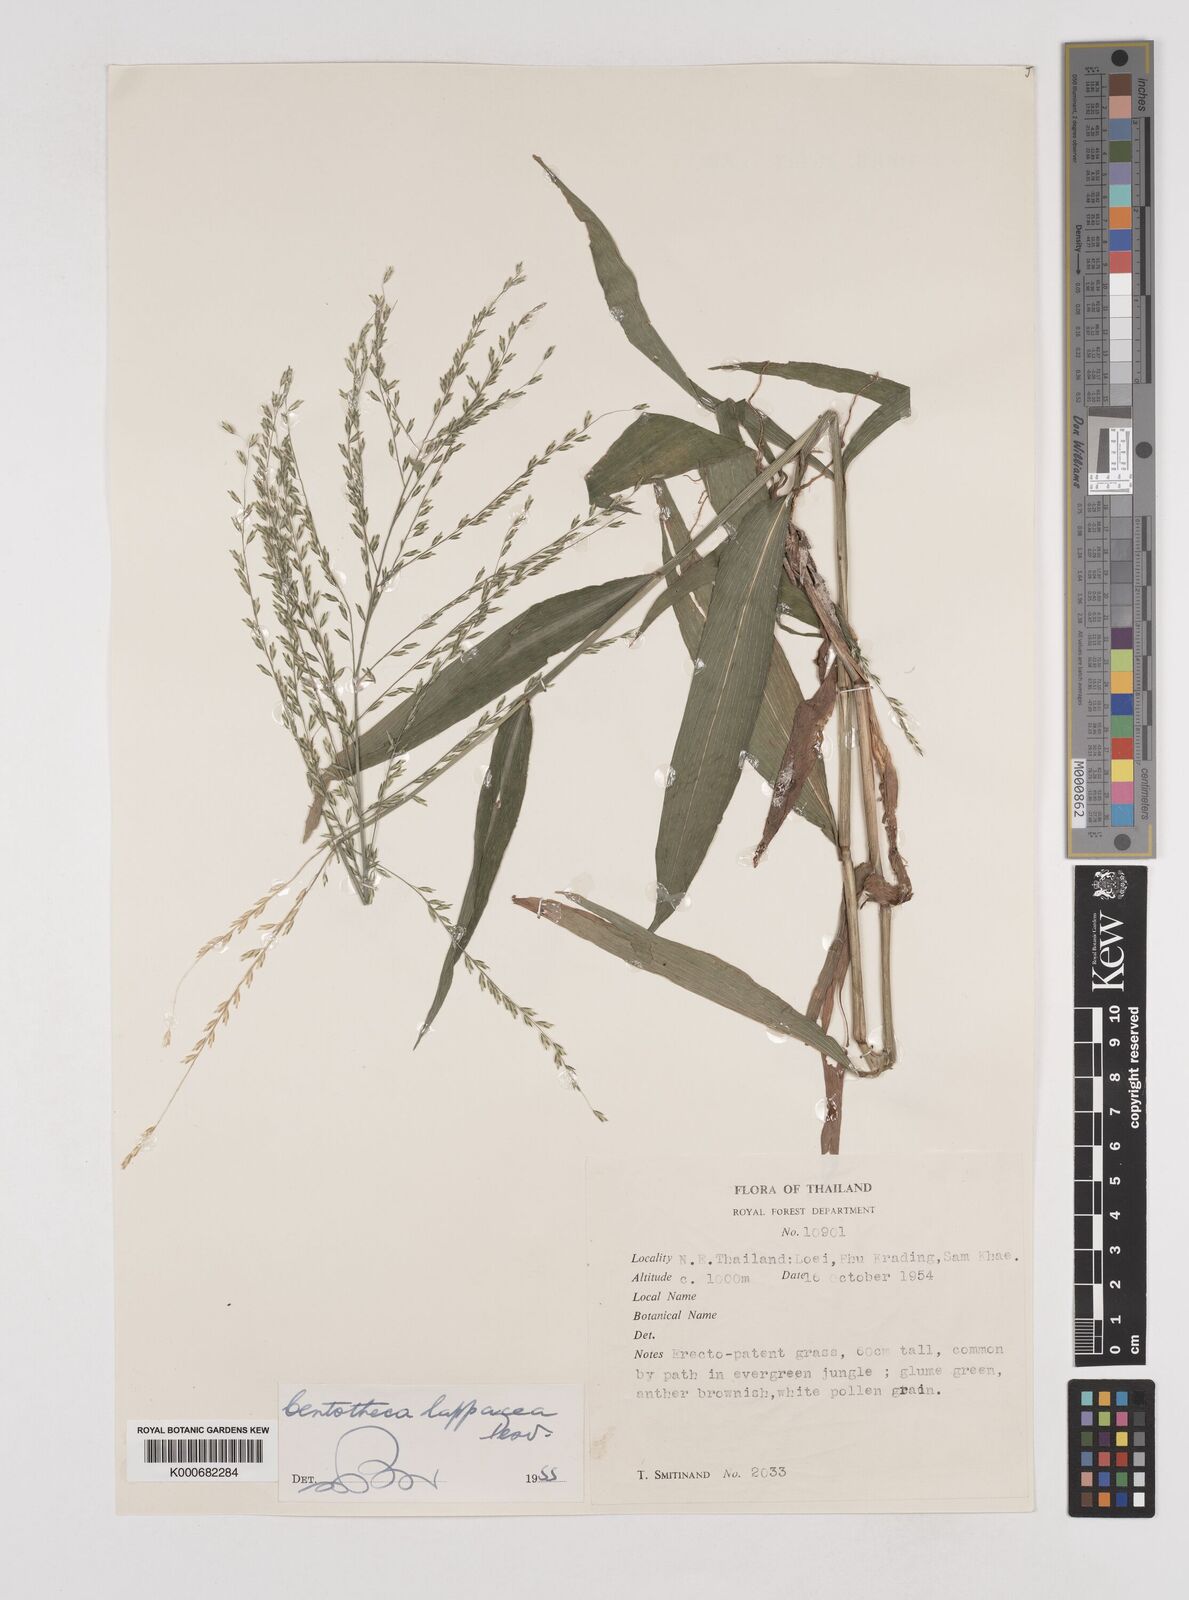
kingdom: Plantae
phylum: Tracheophyta
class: Liliopsida
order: Poales
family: Poaceae
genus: Centotheca
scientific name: Centotheca lappacea
